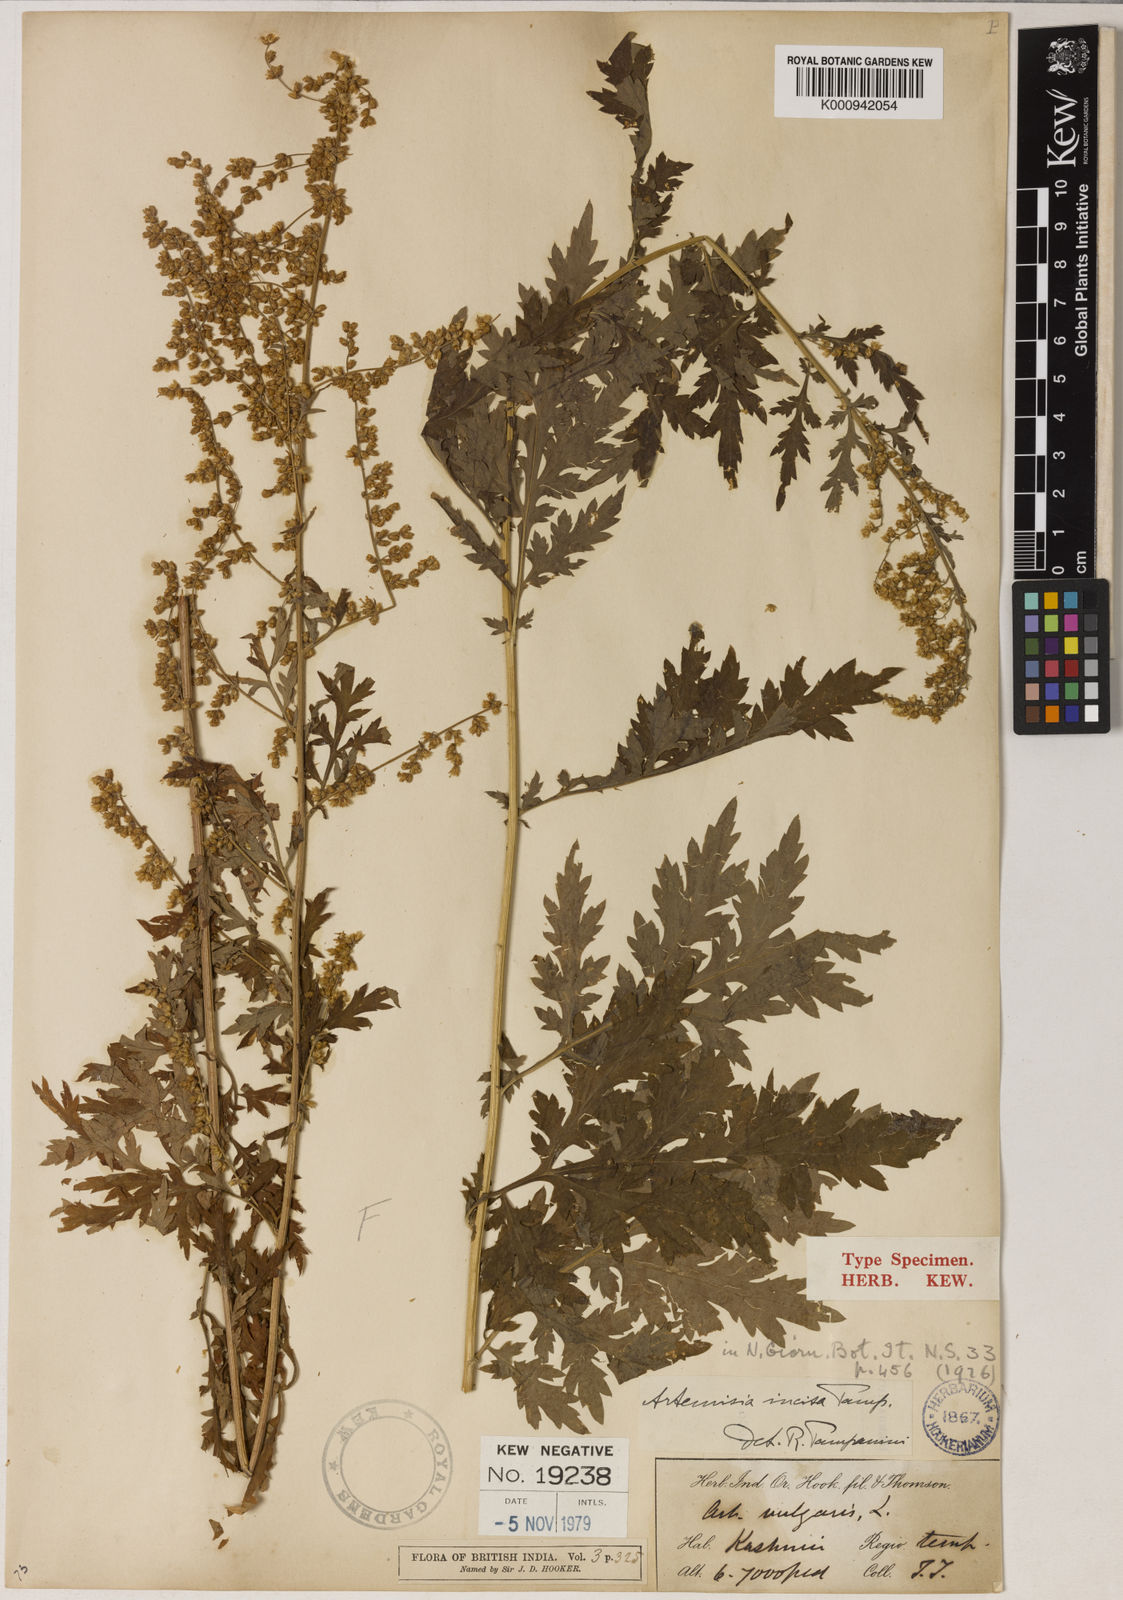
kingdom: Plantae
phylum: Tracheophyta
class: Magnoliopsida
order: Asterales
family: Asteraceae
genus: Artemisia
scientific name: Artemisia incisa
